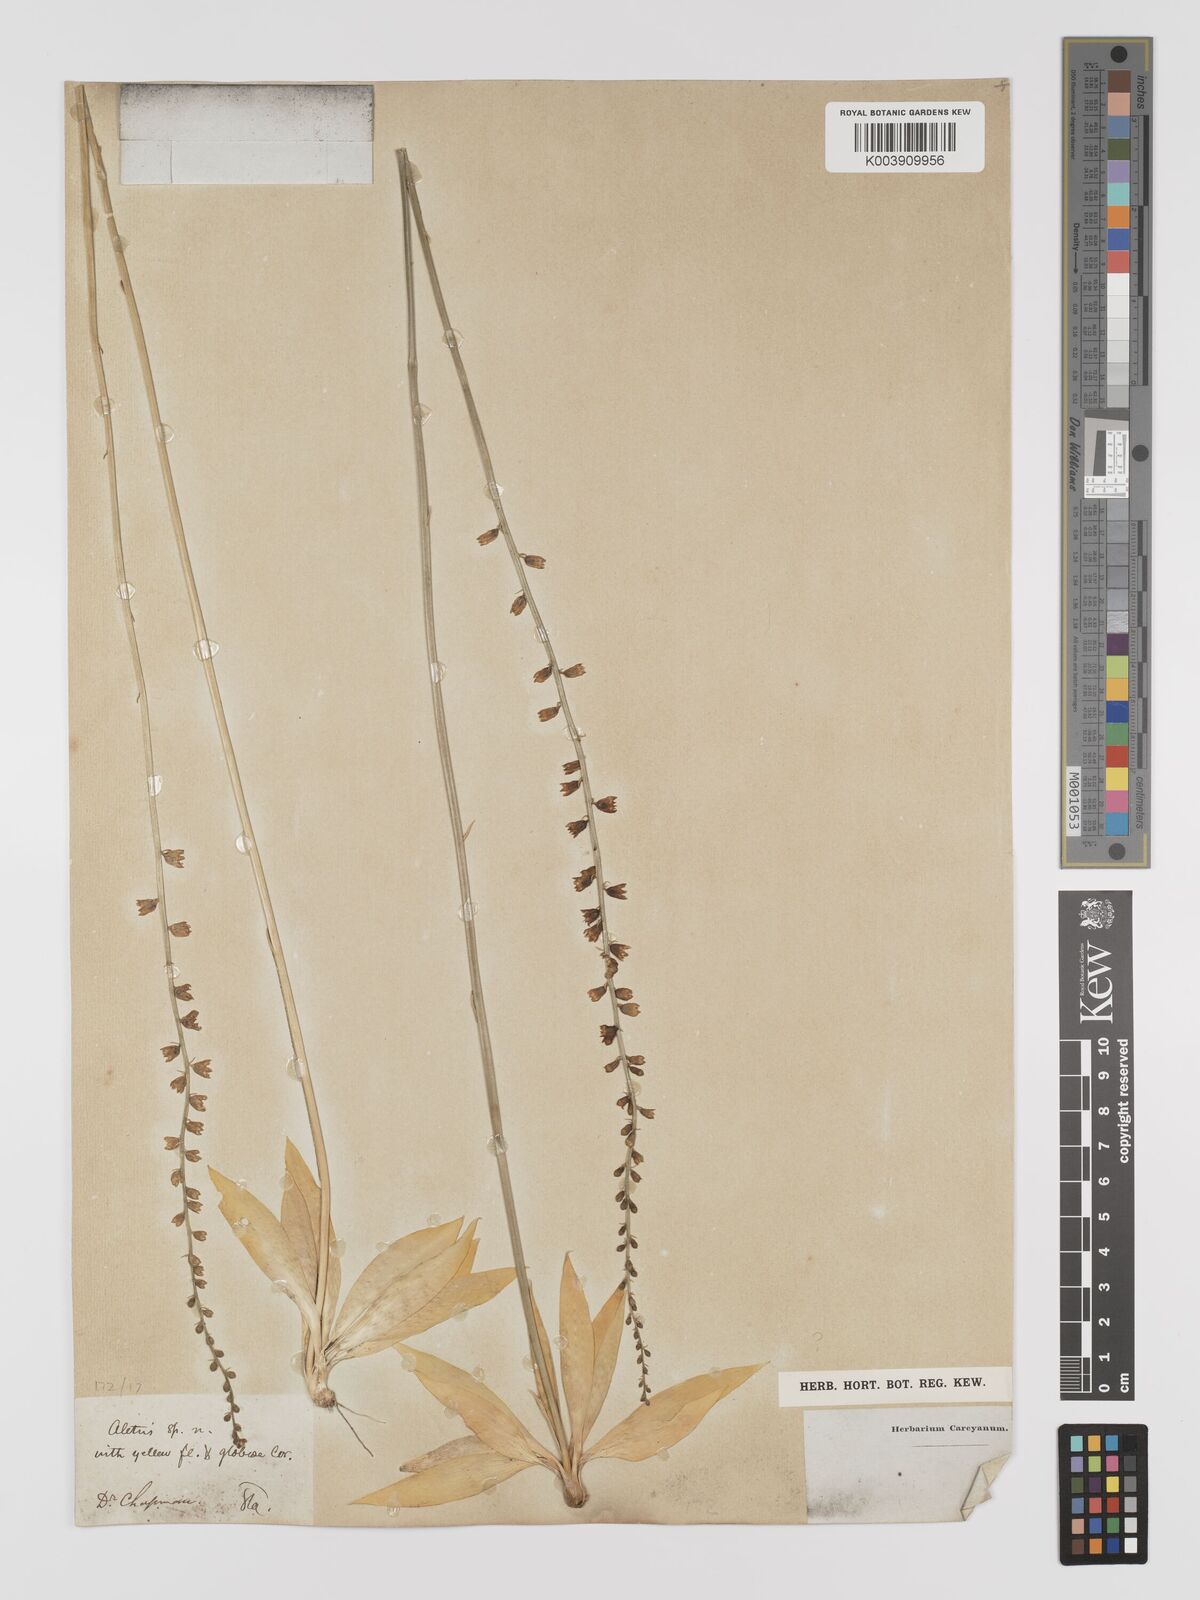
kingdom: Plantae
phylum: Tracheophyta
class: Liliopsida
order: Dioscoreales
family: Nartheciaceae
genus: Aletris
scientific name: Aletris
